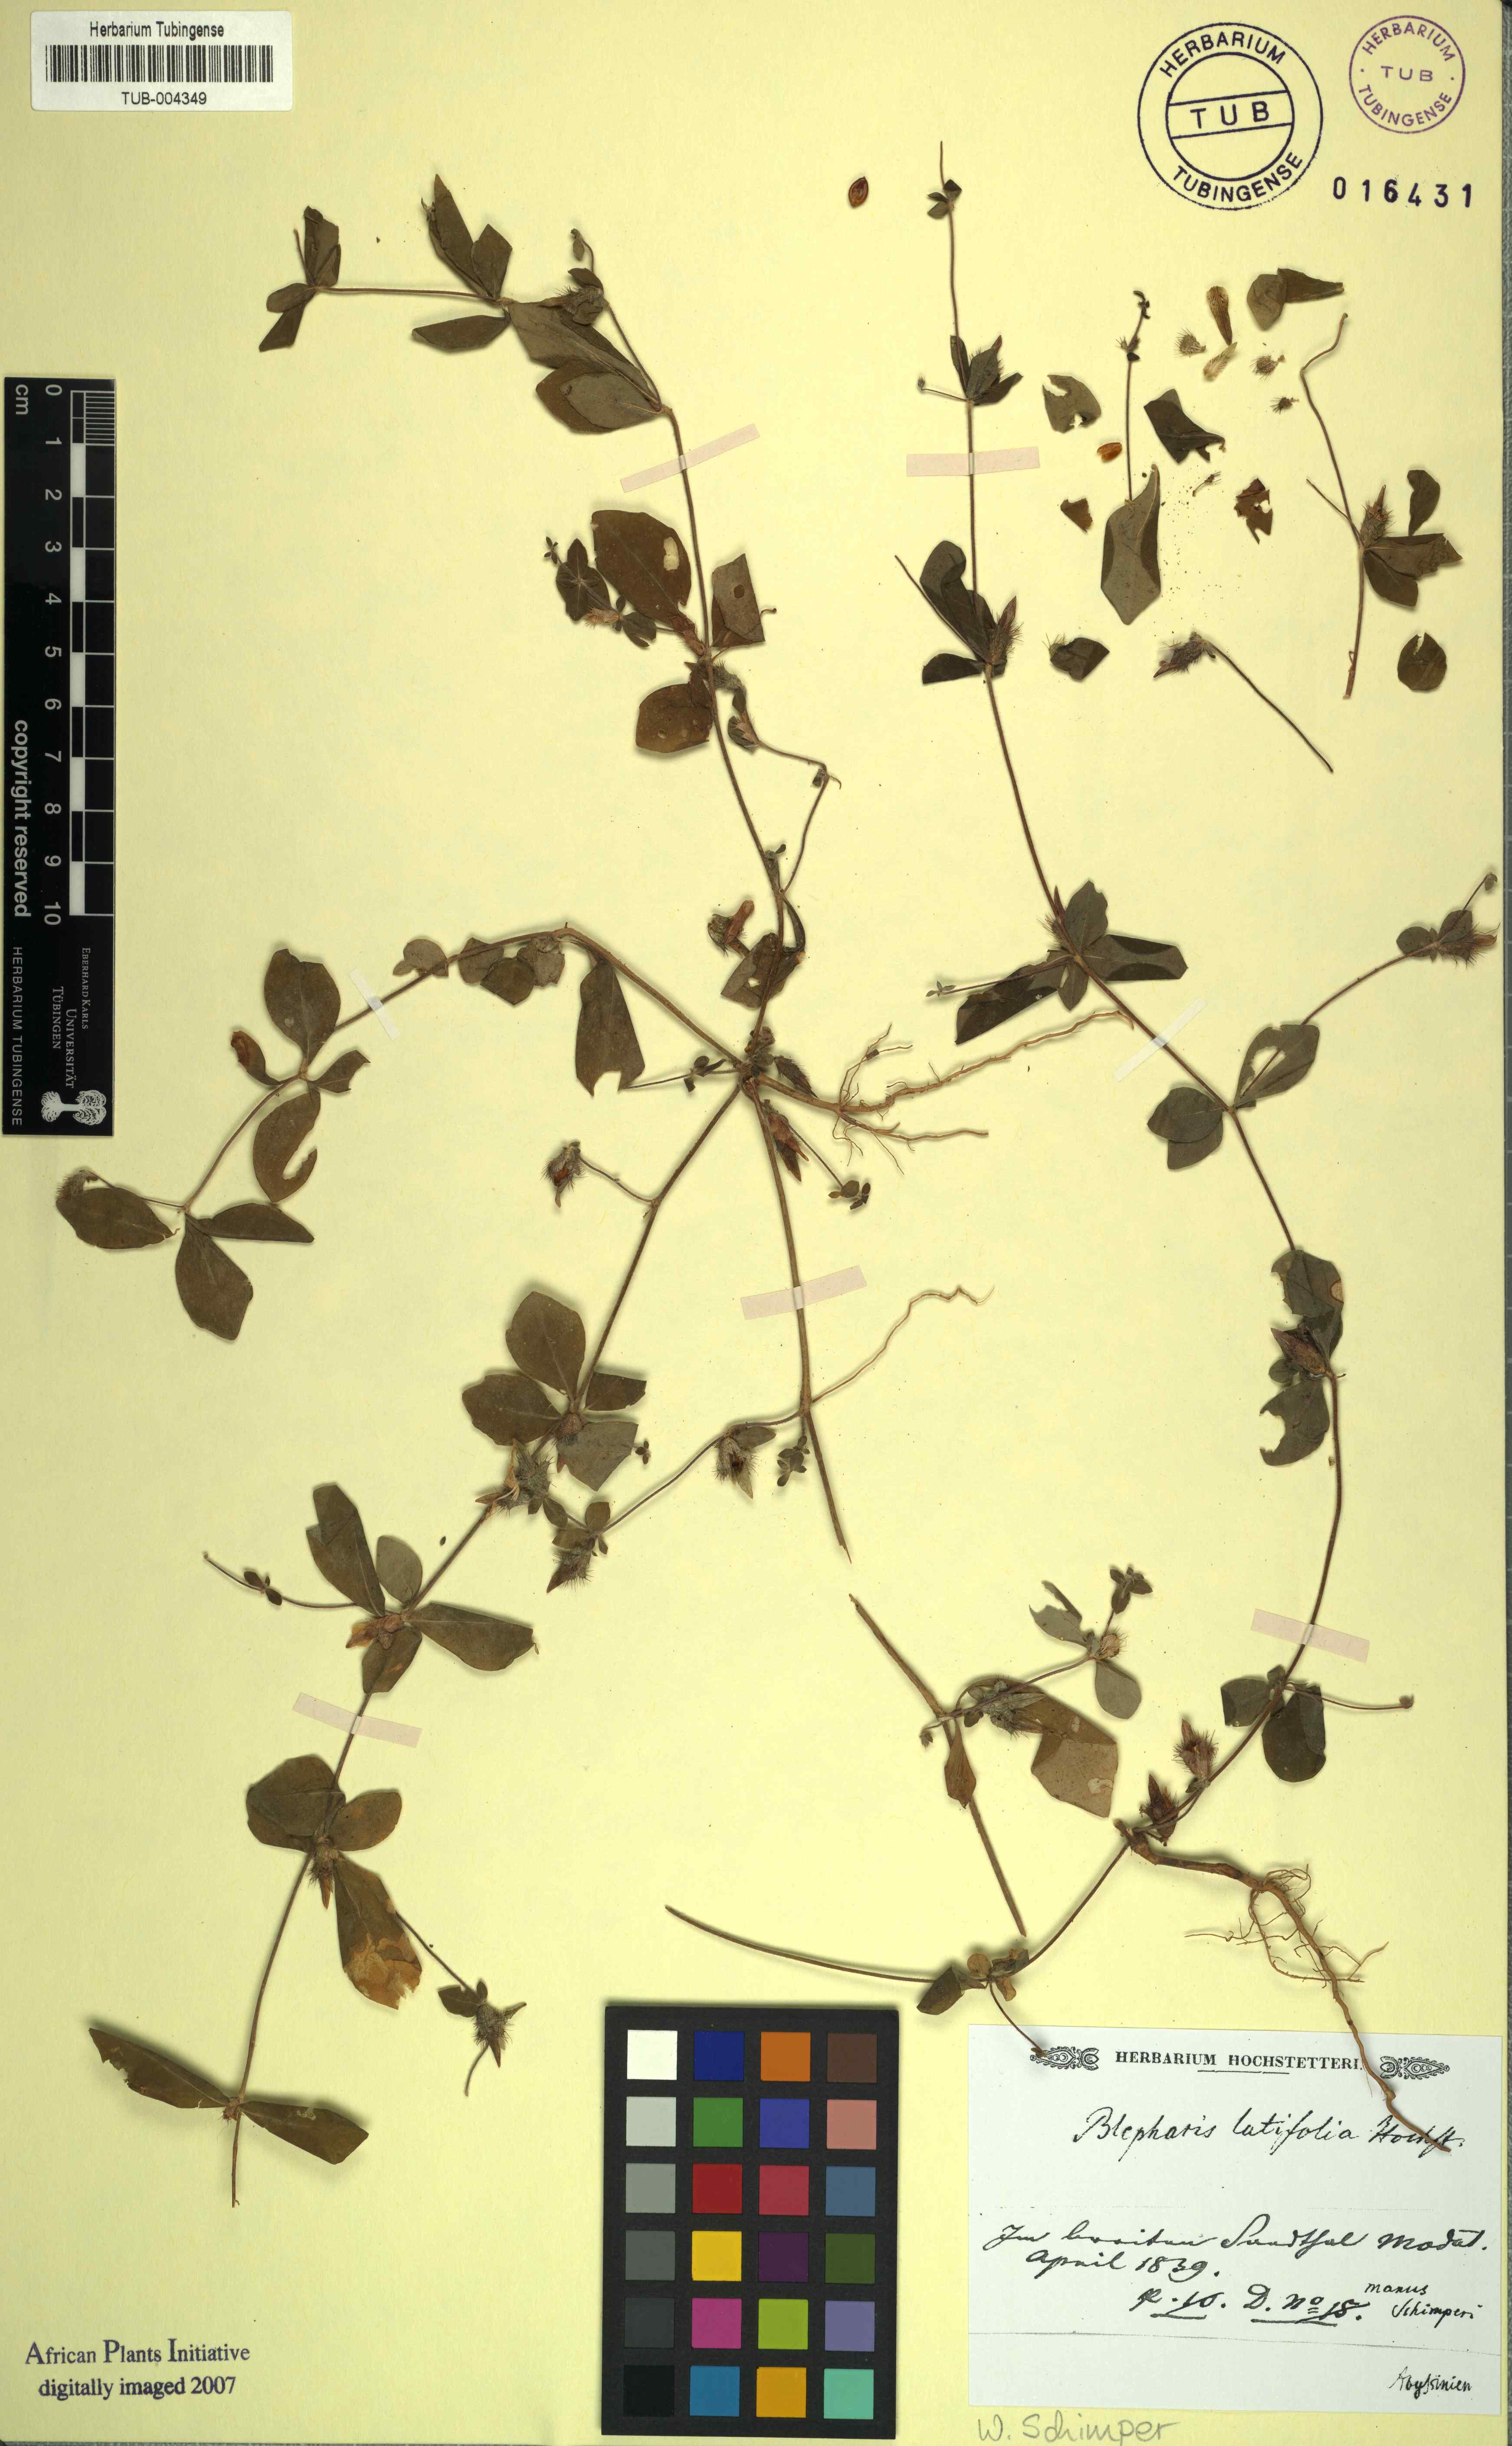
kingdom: Plantae
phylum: Tracheophyta
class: Magnoliopsida
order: Lamiales
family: Acanthaceae
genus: Blepharis
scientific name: Blepharis
